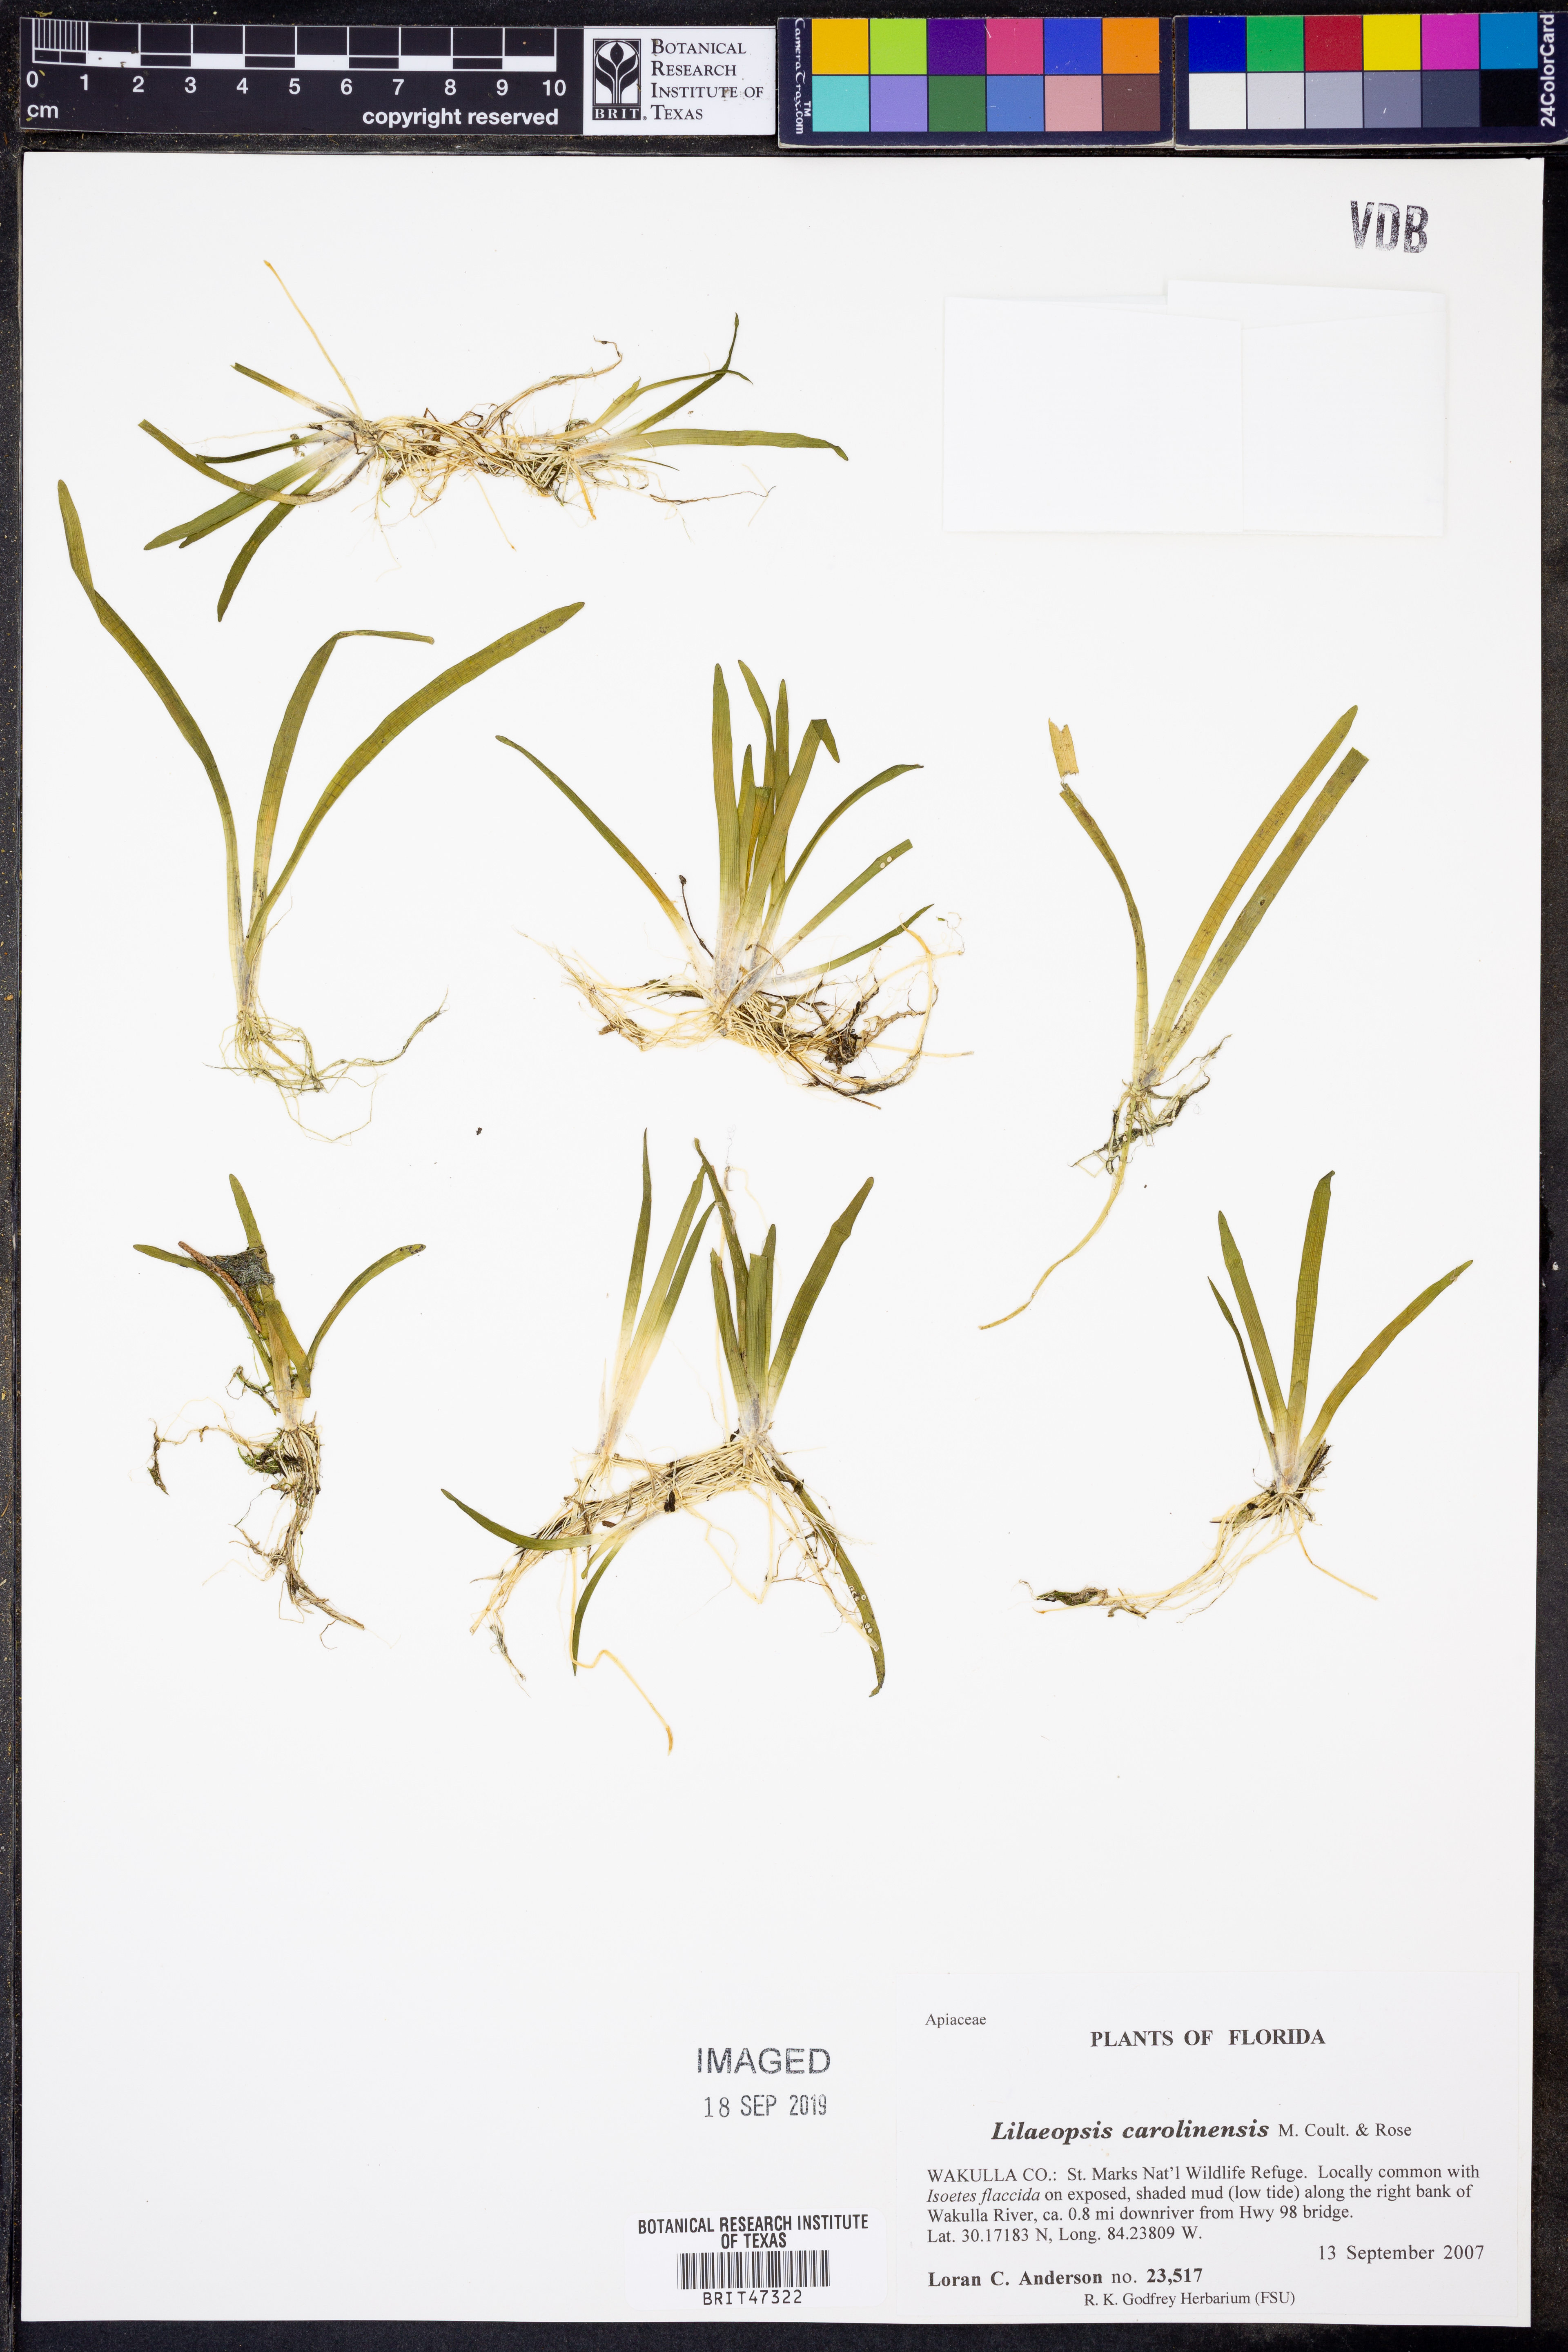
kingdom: Plantae
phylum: Tracheophyta
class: Magnoliopsida
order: Apiales
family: Apiaceae
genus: Lilaeopsis
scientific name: Lilaeopsis carolinensis
